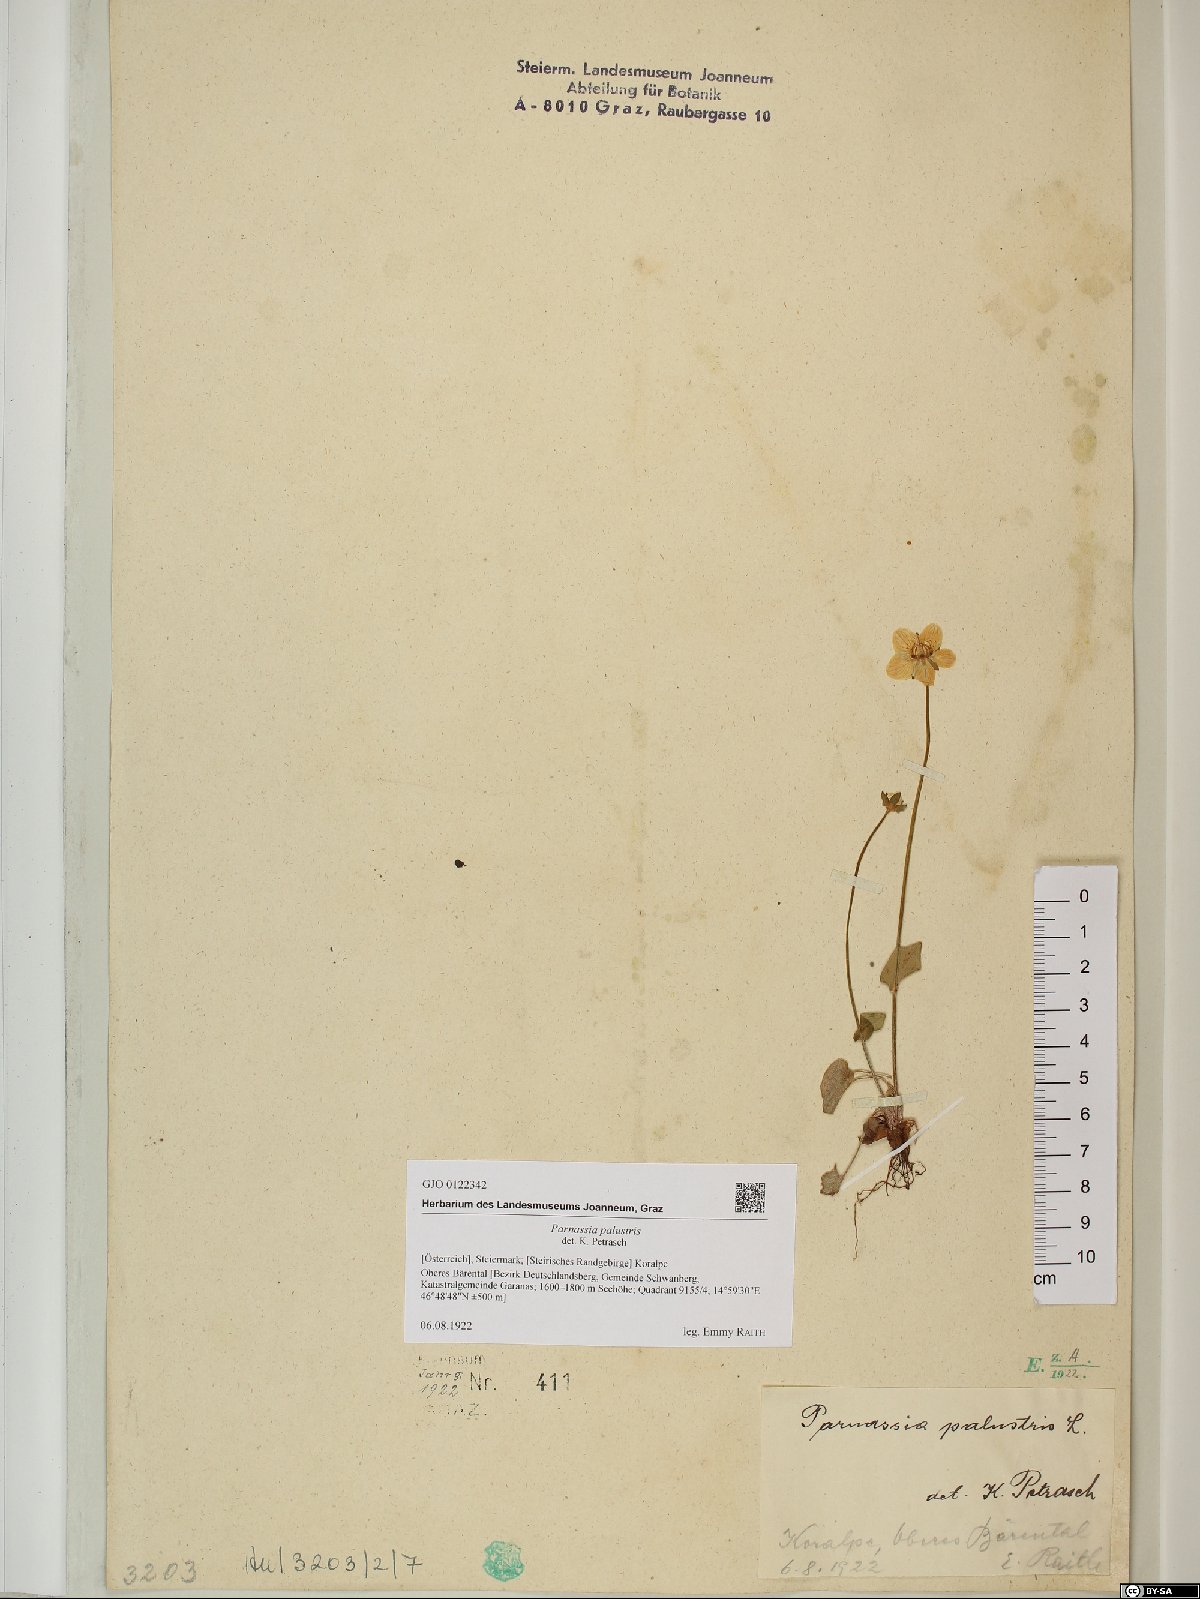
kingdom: Plantae
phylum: Tracheophyta
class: Magnoliopsida
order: Celastrales
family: Parnassiaceae
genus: Parnassia
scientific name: Parnassia palustris
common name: Grass-of-parnassus
